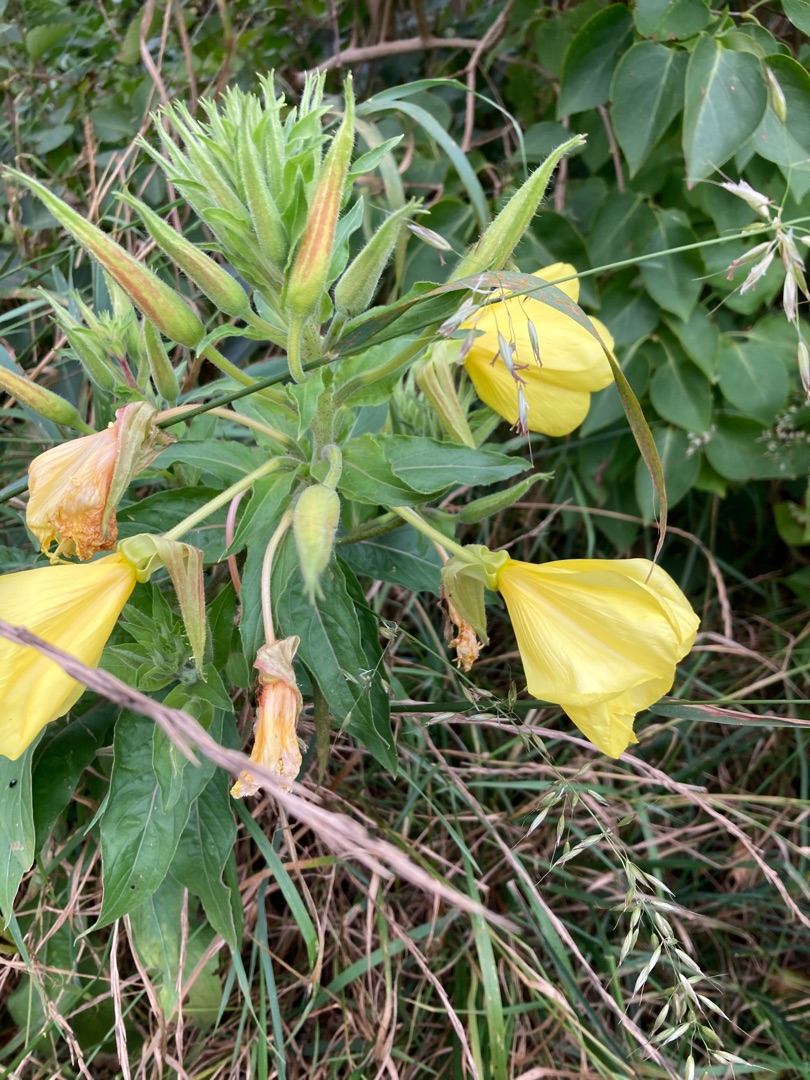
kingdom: Plantae
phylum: Tracheophyta
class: Magnoliopsida
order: Myrtales
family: Onagraceae
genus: Oenothera
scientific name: Oenothera glazioviana
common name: Kæmpe-natlys
